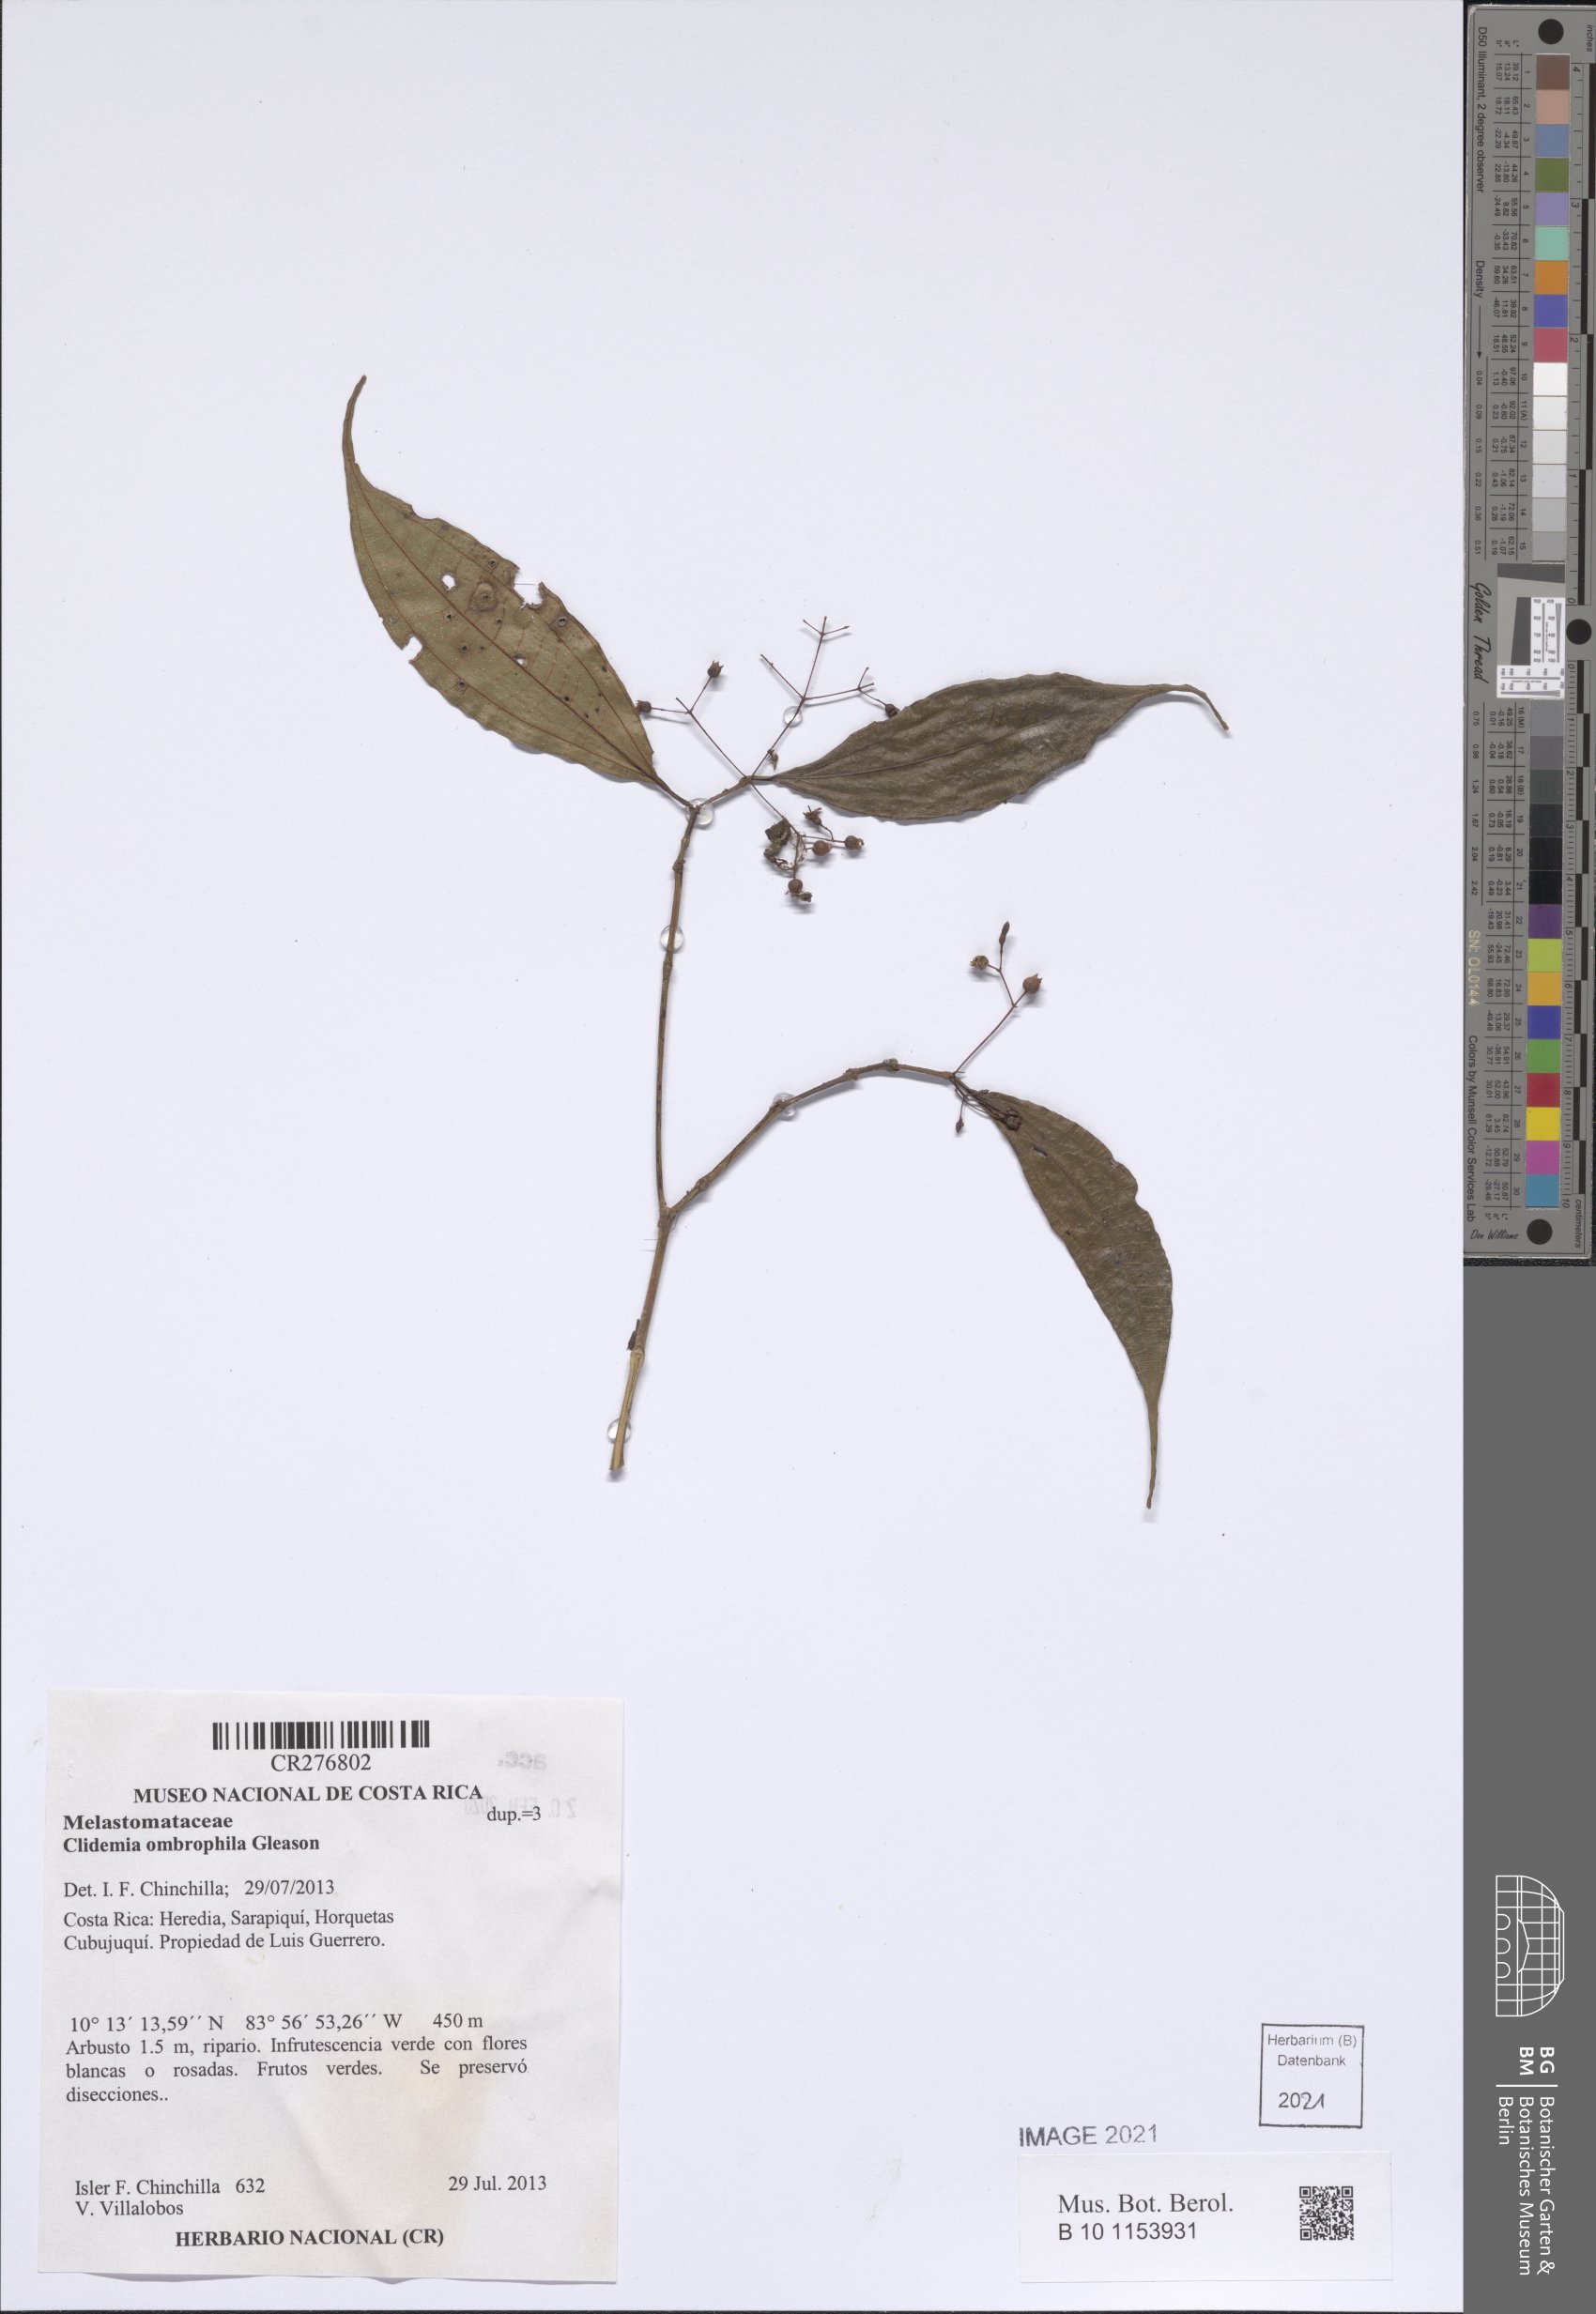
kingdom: Plantae
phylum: Tracheophyta
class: Magnoliopsida
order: Myrtales
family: Melastomataceae
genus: Miconia
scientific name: Miconia
